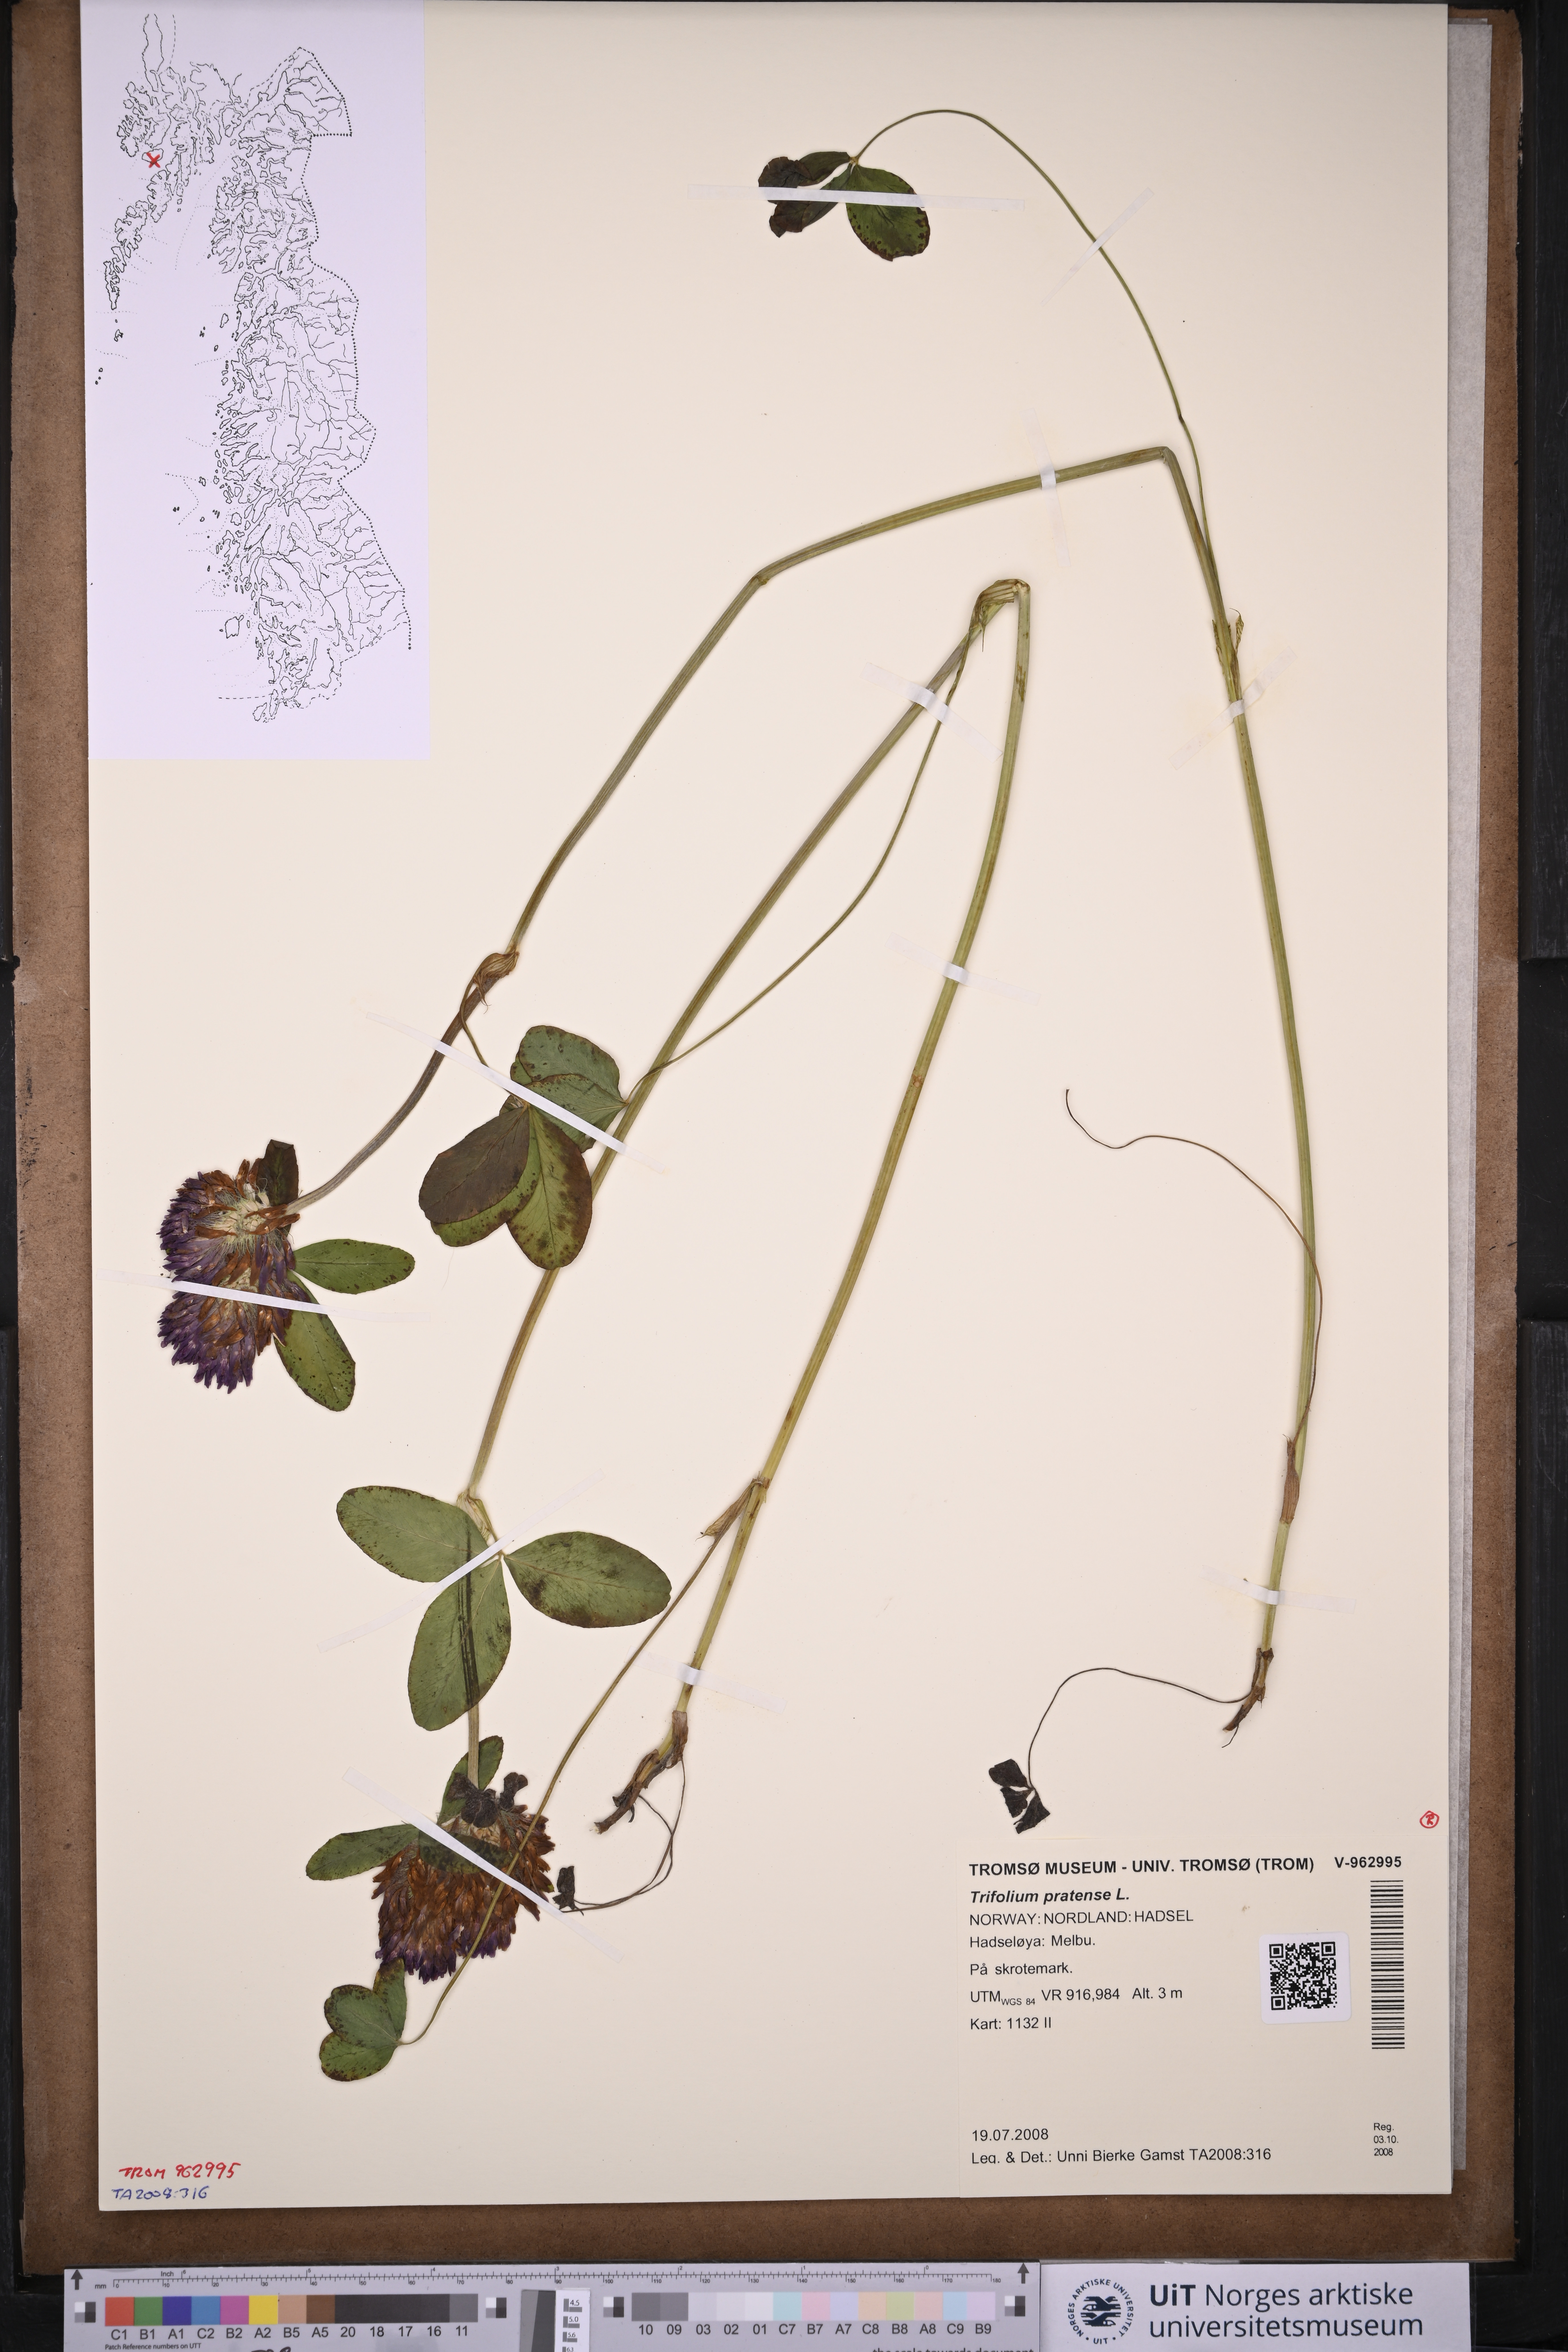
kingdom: Plantae
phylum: Tracheophyta
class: Magnoliopsida
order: Fabales
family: Fabaceae
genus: Trifolium
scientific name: Trifolium pratense
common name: Red clover
